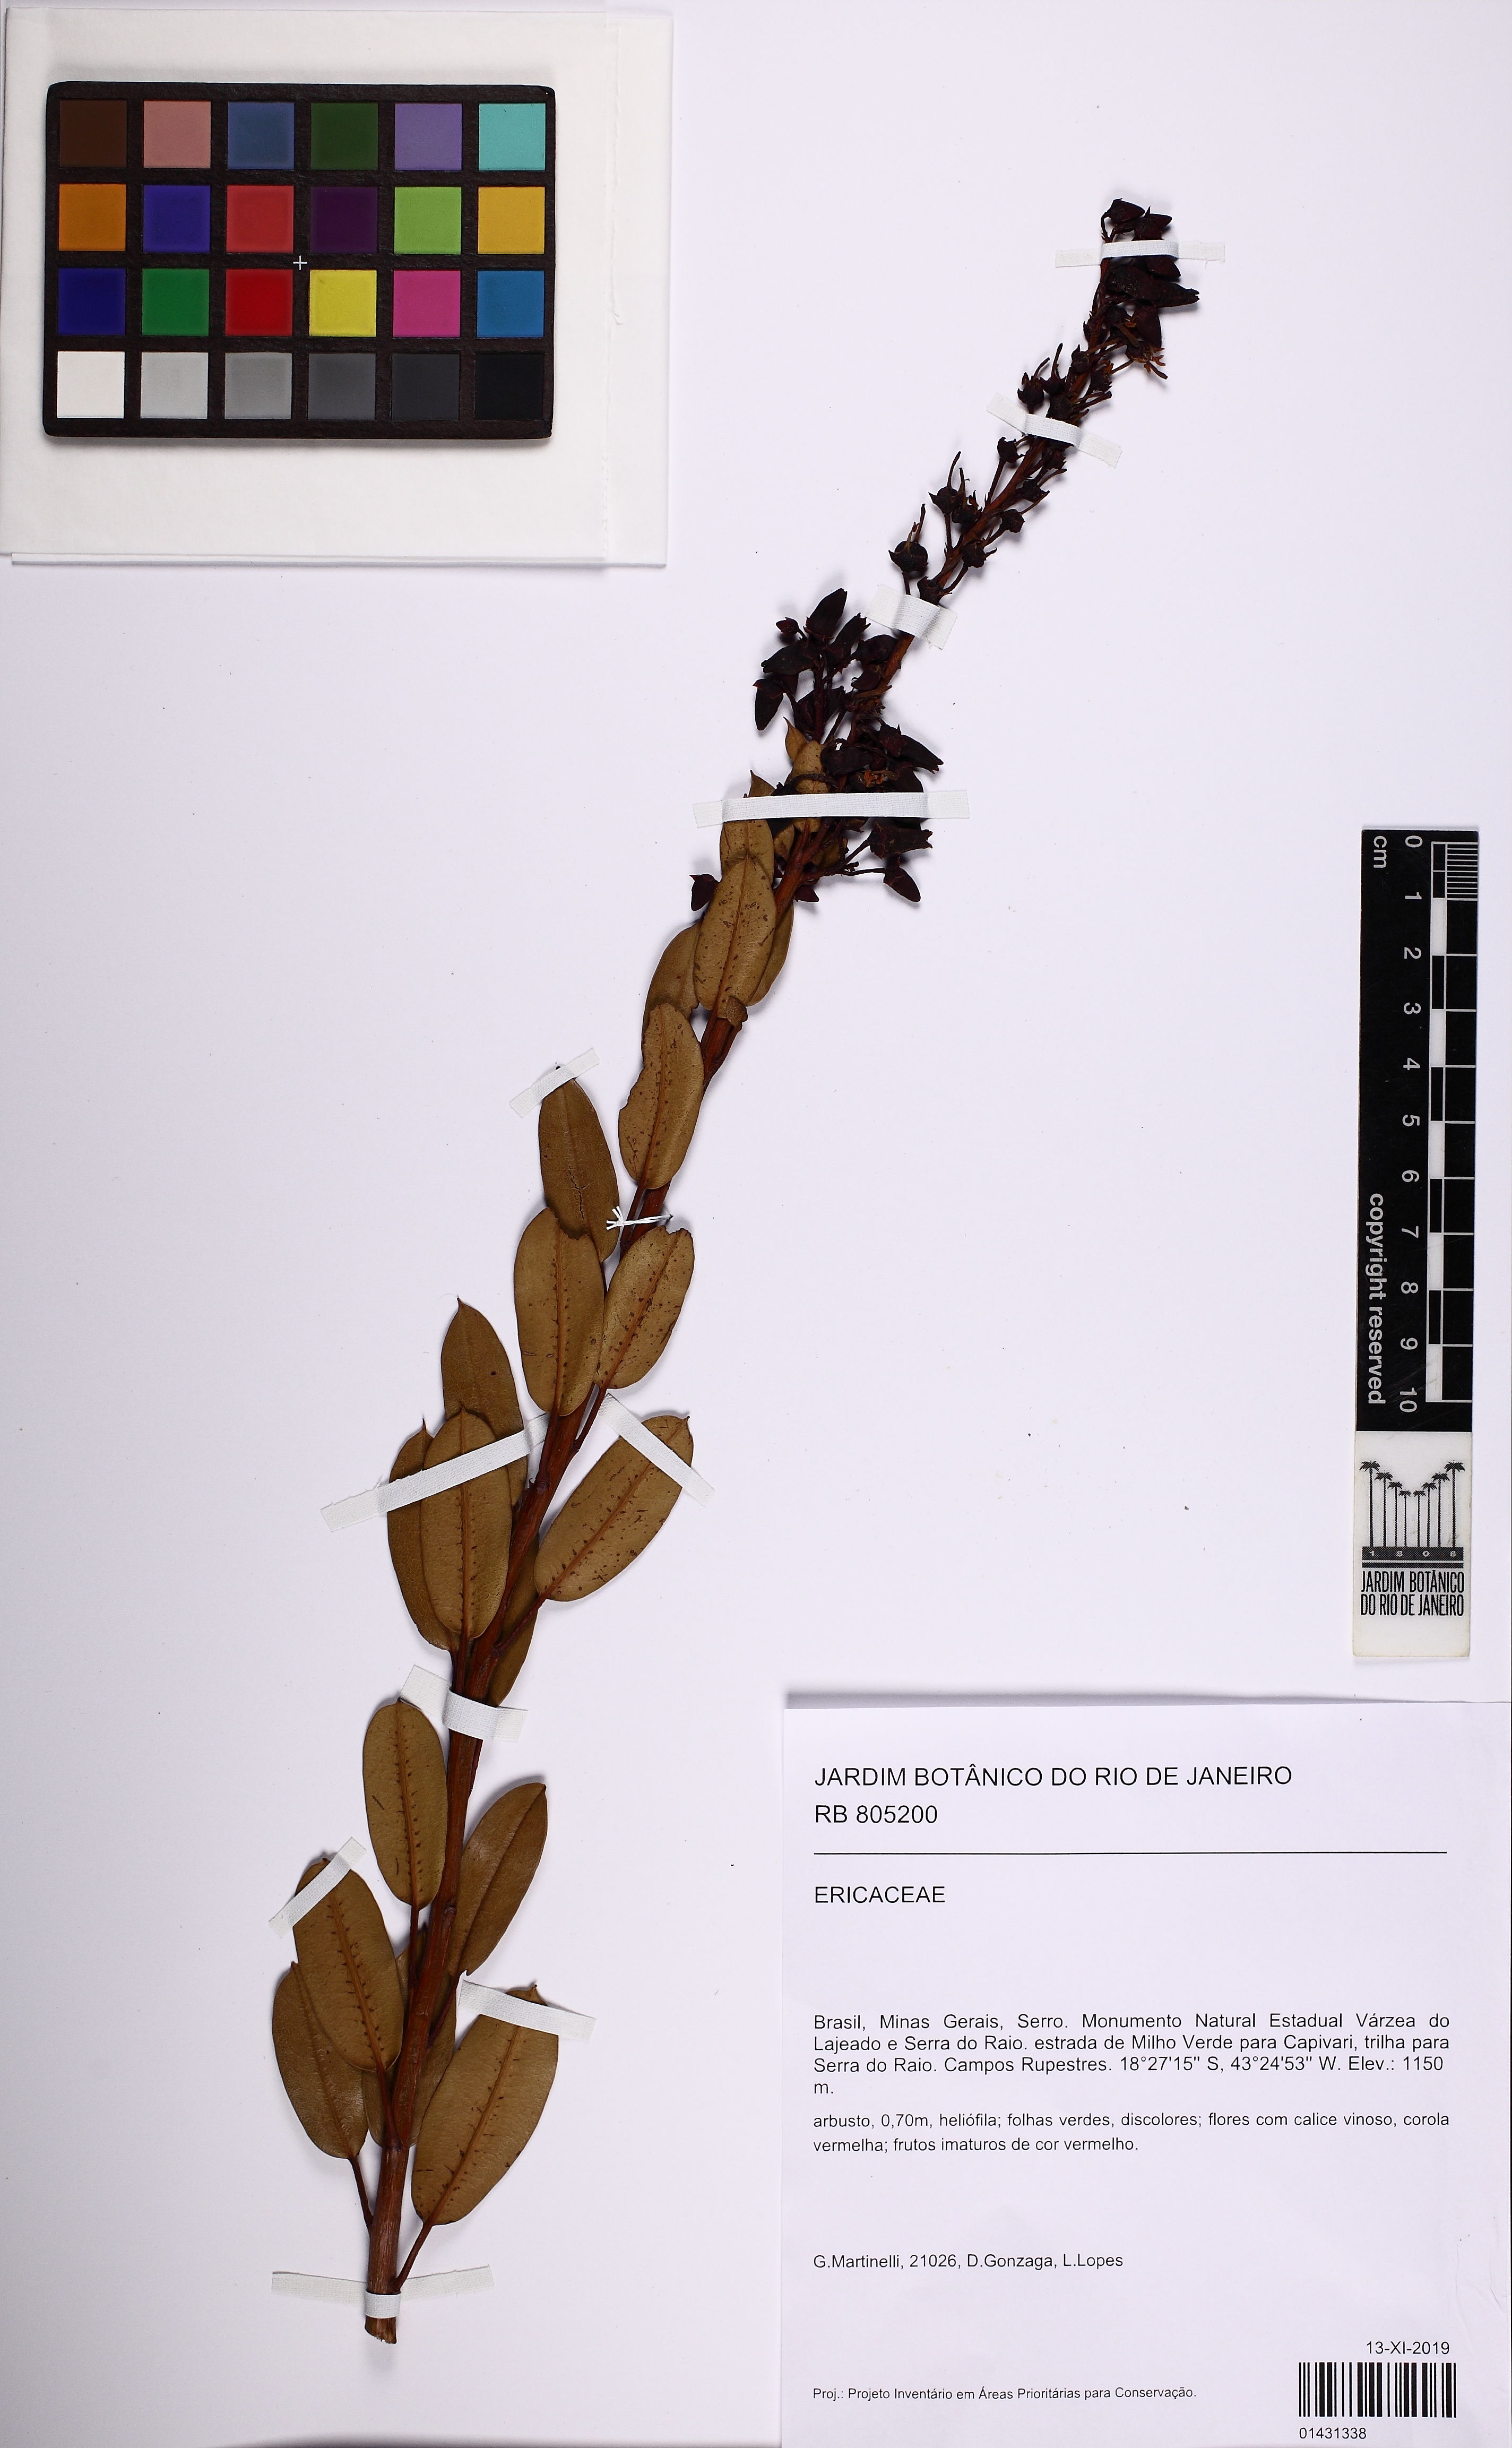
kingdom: Plantae
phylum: Tracheophyta
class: Magnoliopsida
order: Ericales
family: Ericaceae
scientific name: Ericaceae
